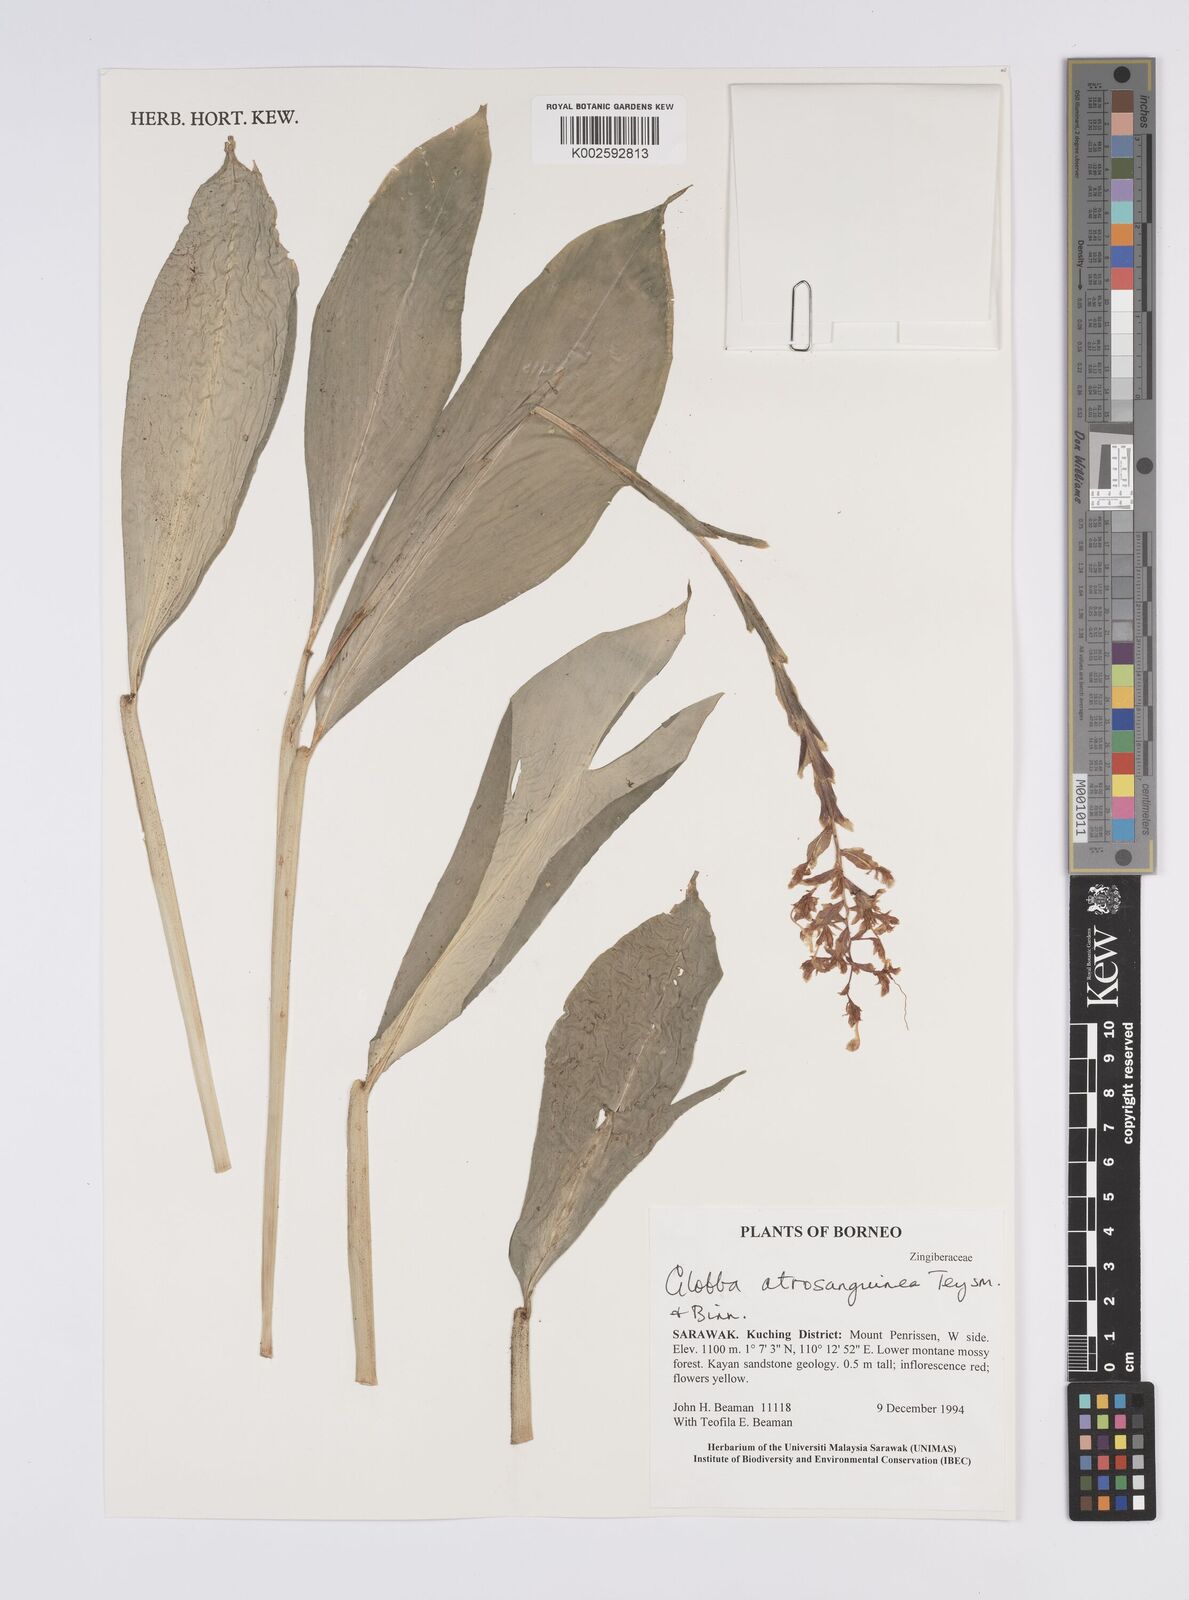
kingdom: Plantae
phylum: Tracheophyta
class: Liliopsida
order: Zingiberales
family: Zingiberaceae
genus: Globba
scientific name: Globba atrosanguinea
